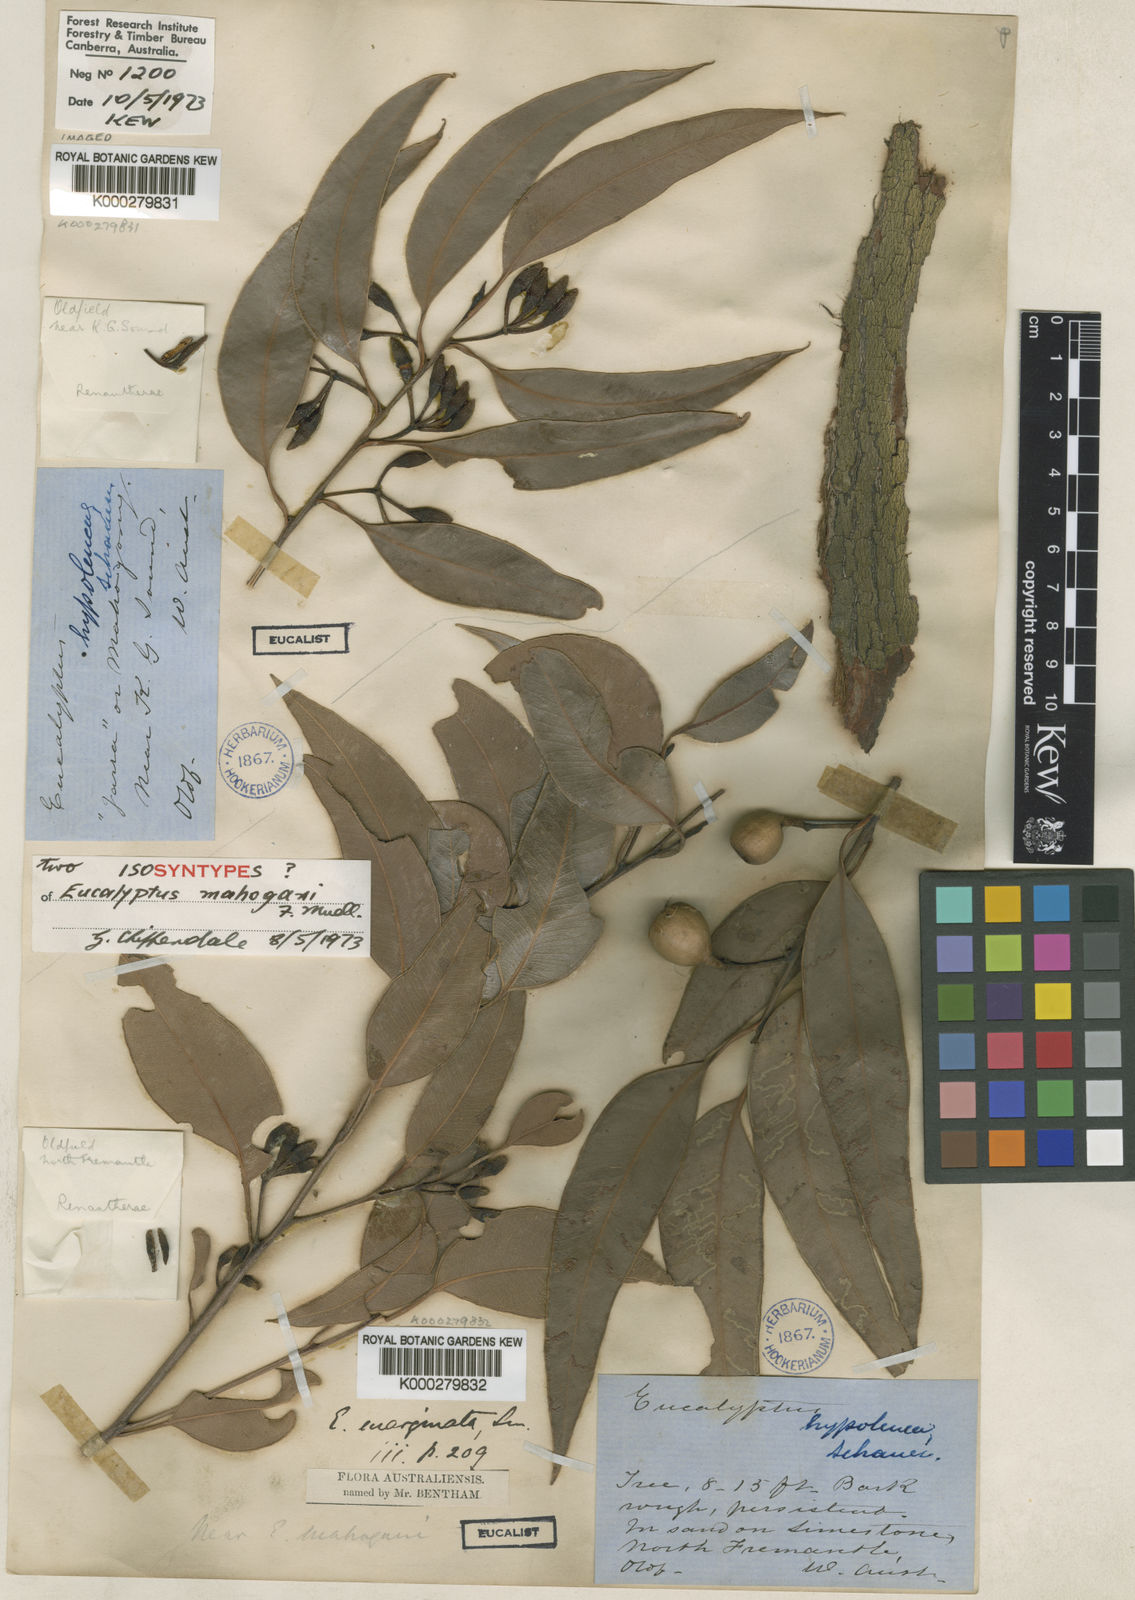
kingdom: Plantae
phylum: Tracheophyta
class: Magnoliopsida
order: Myrtales
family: Myrtaceae
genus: Eucalyptus
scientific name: Eucalyptus marginata
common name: Jarrah
